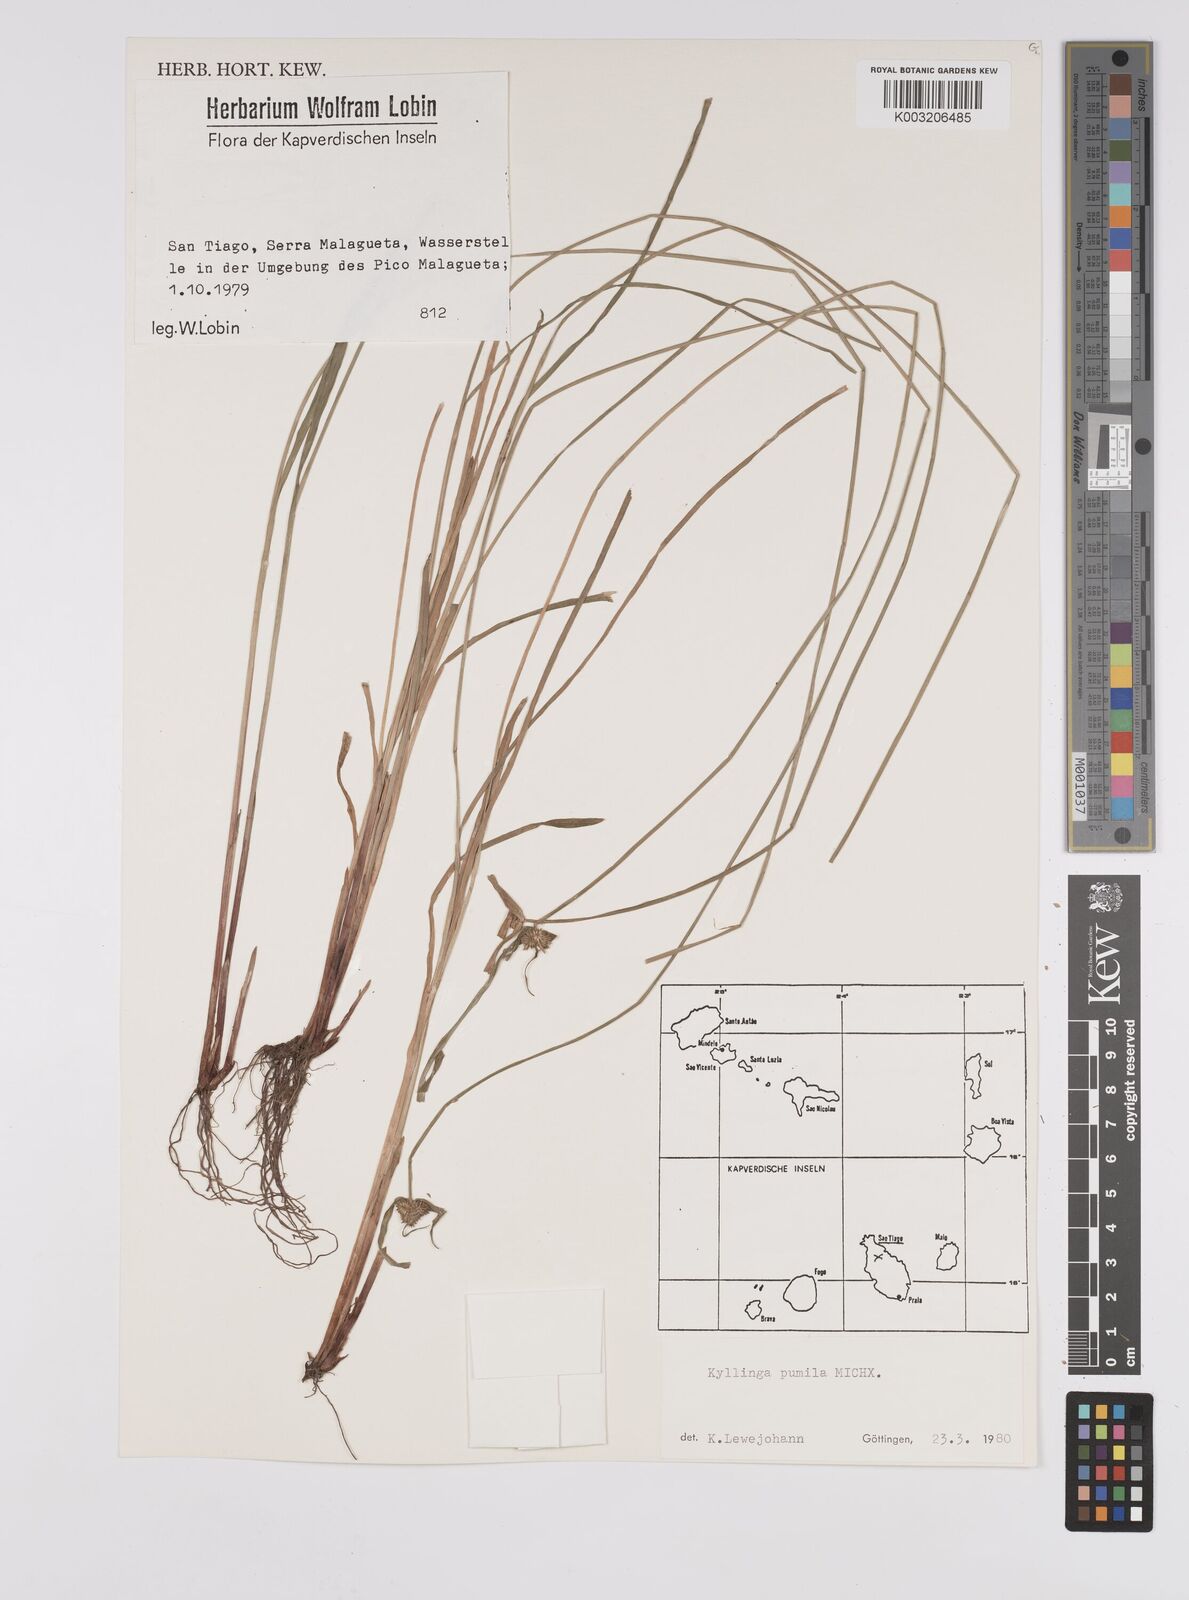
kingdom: Plantae
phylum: Tracheophyta
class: Liliopsida
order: Poales
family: Cyperaceae
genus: Cyperus
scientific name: Cyperus
